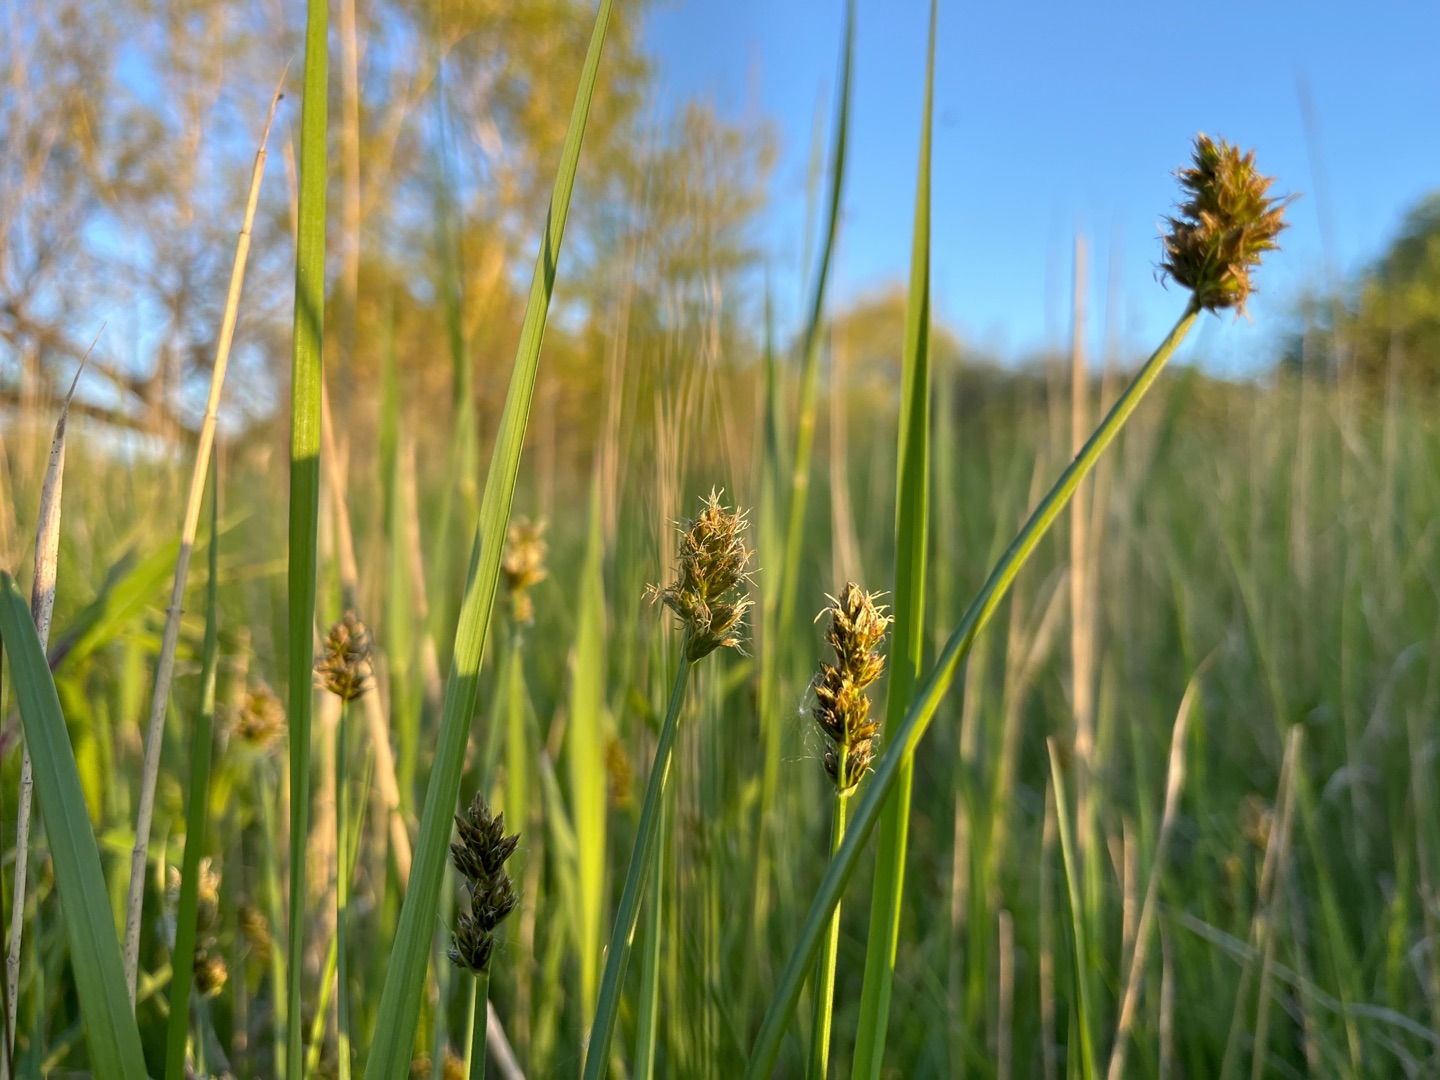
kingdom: Plantae
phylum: Tracheophyta
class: Liliopsida
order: Poales
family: Cyperaceae
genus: Carex
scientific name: Carex otrubae
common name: Sylt-star
